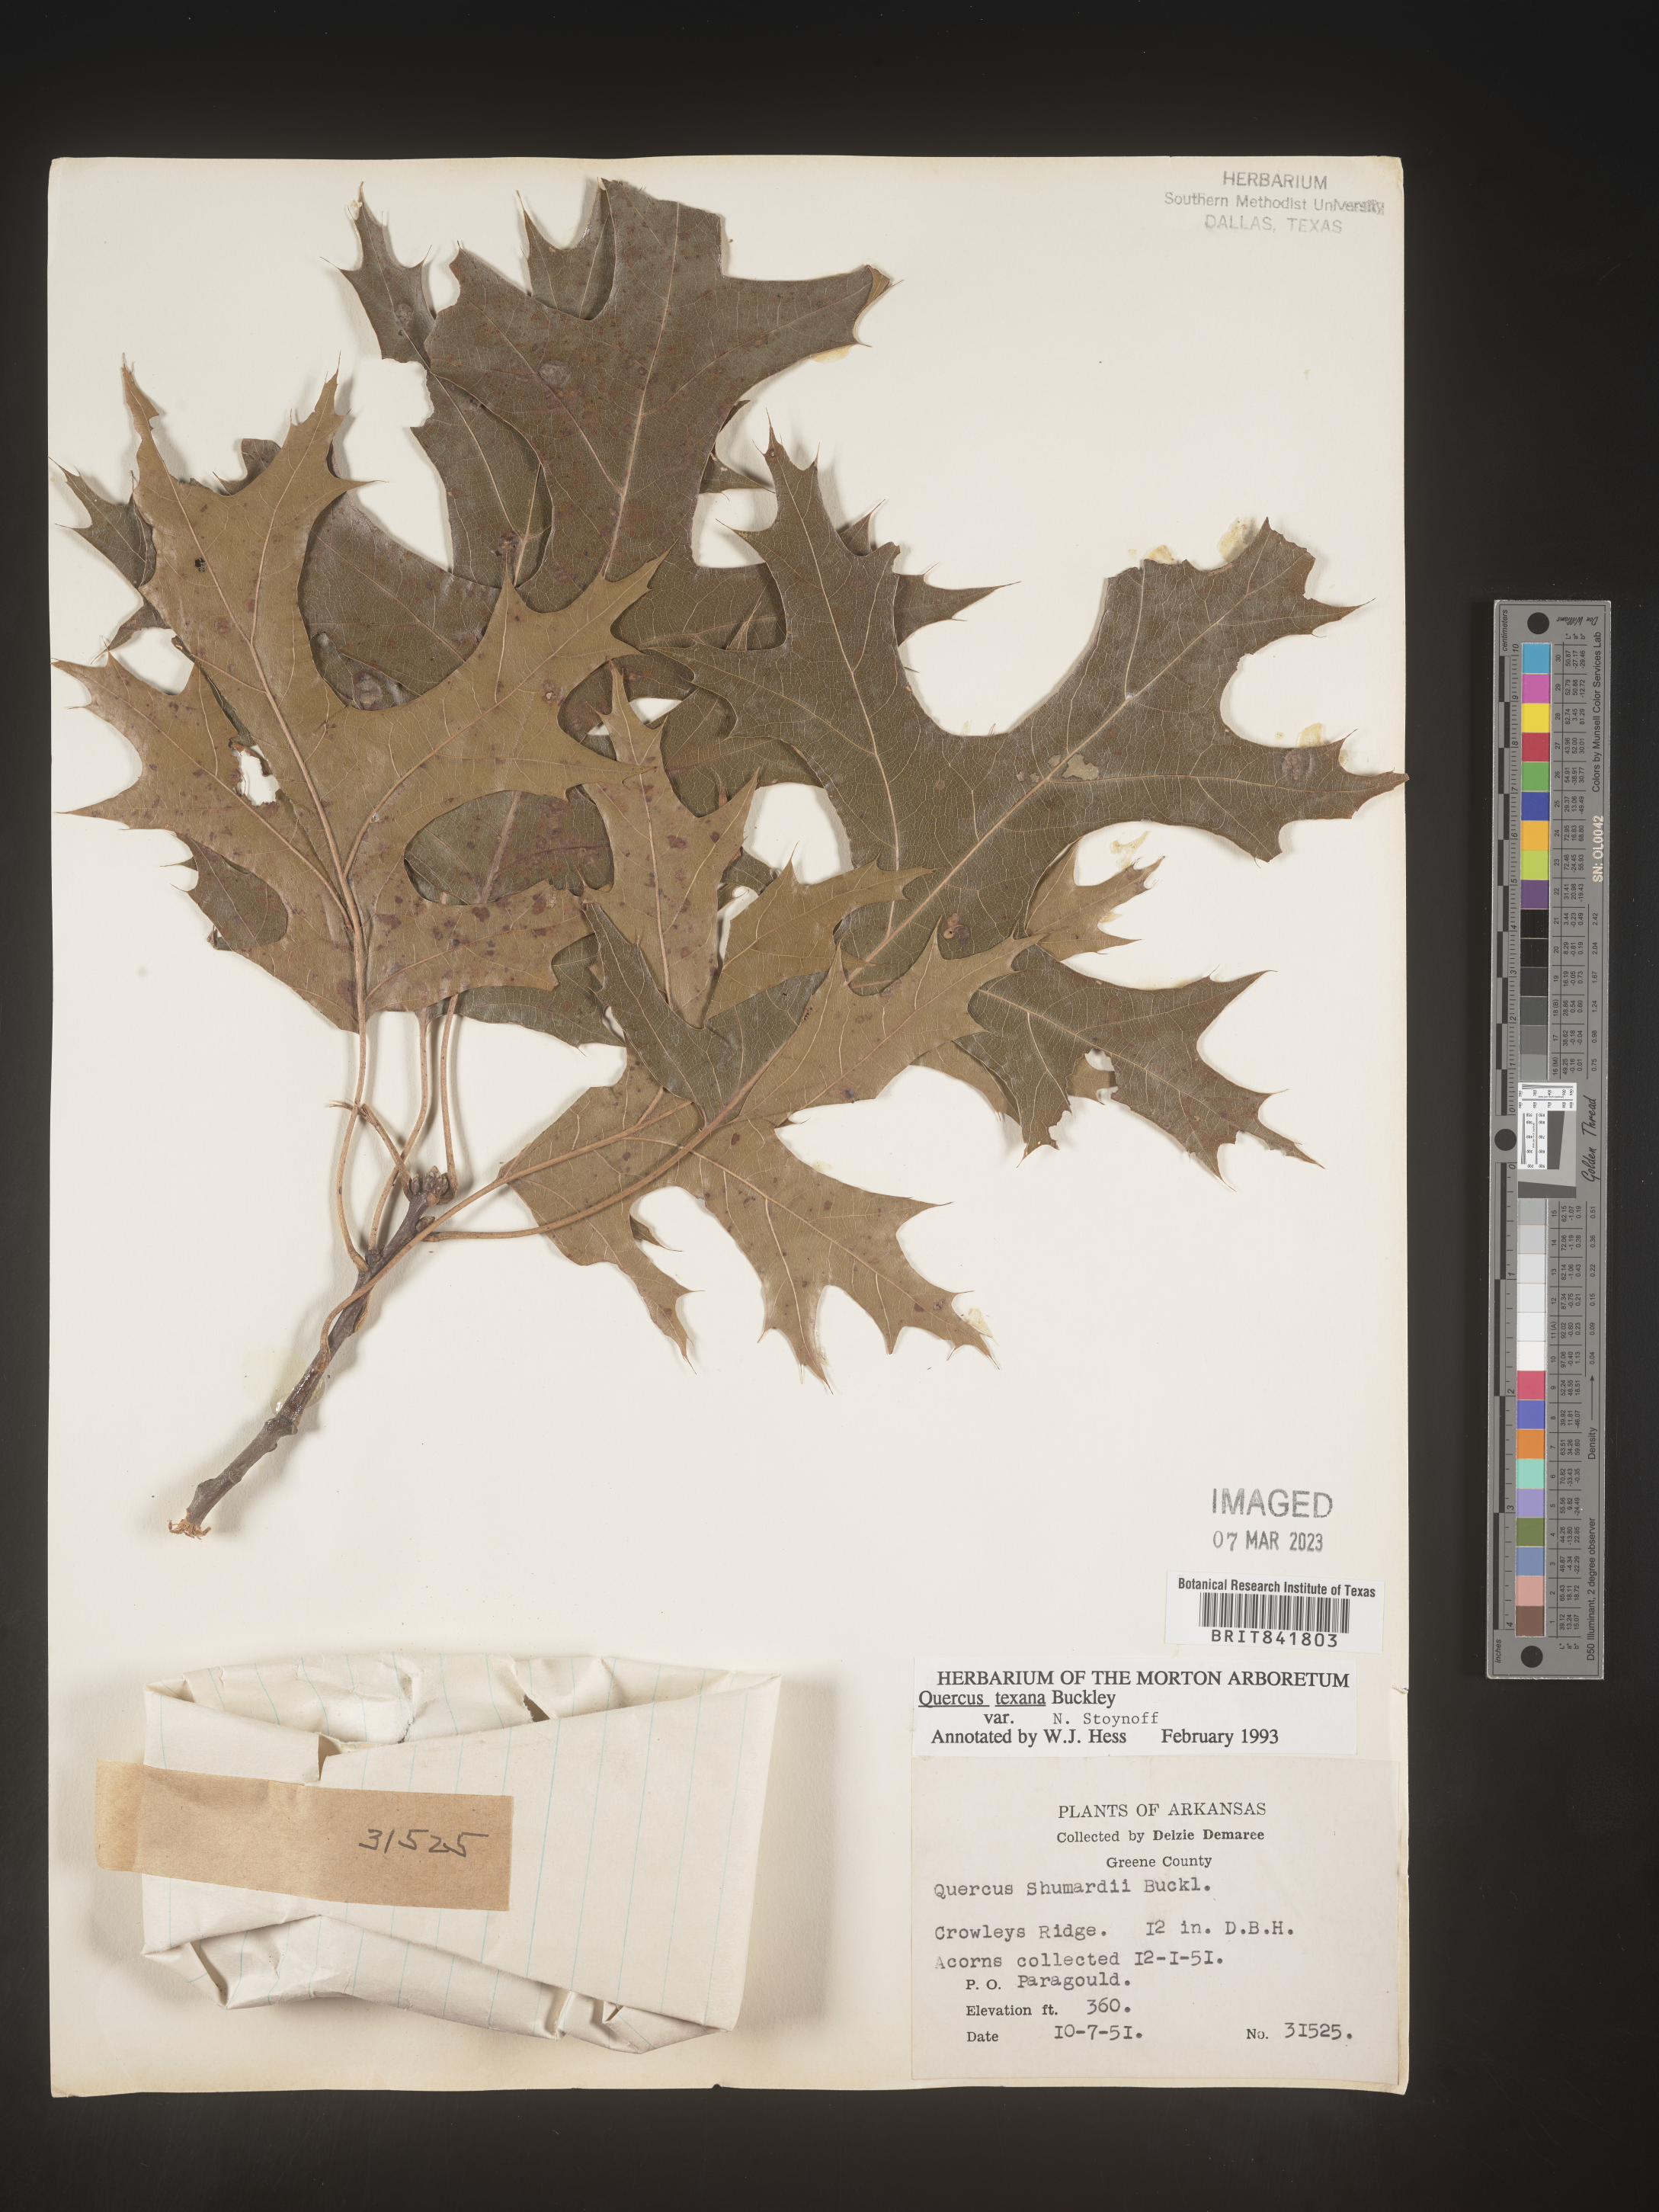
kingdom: Plantae
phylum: Tracheophyta
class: Magnoliopsida
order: Fagales
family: Fagaceae
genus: Quercus
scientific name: Quercus texana
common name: Nuttall oak
